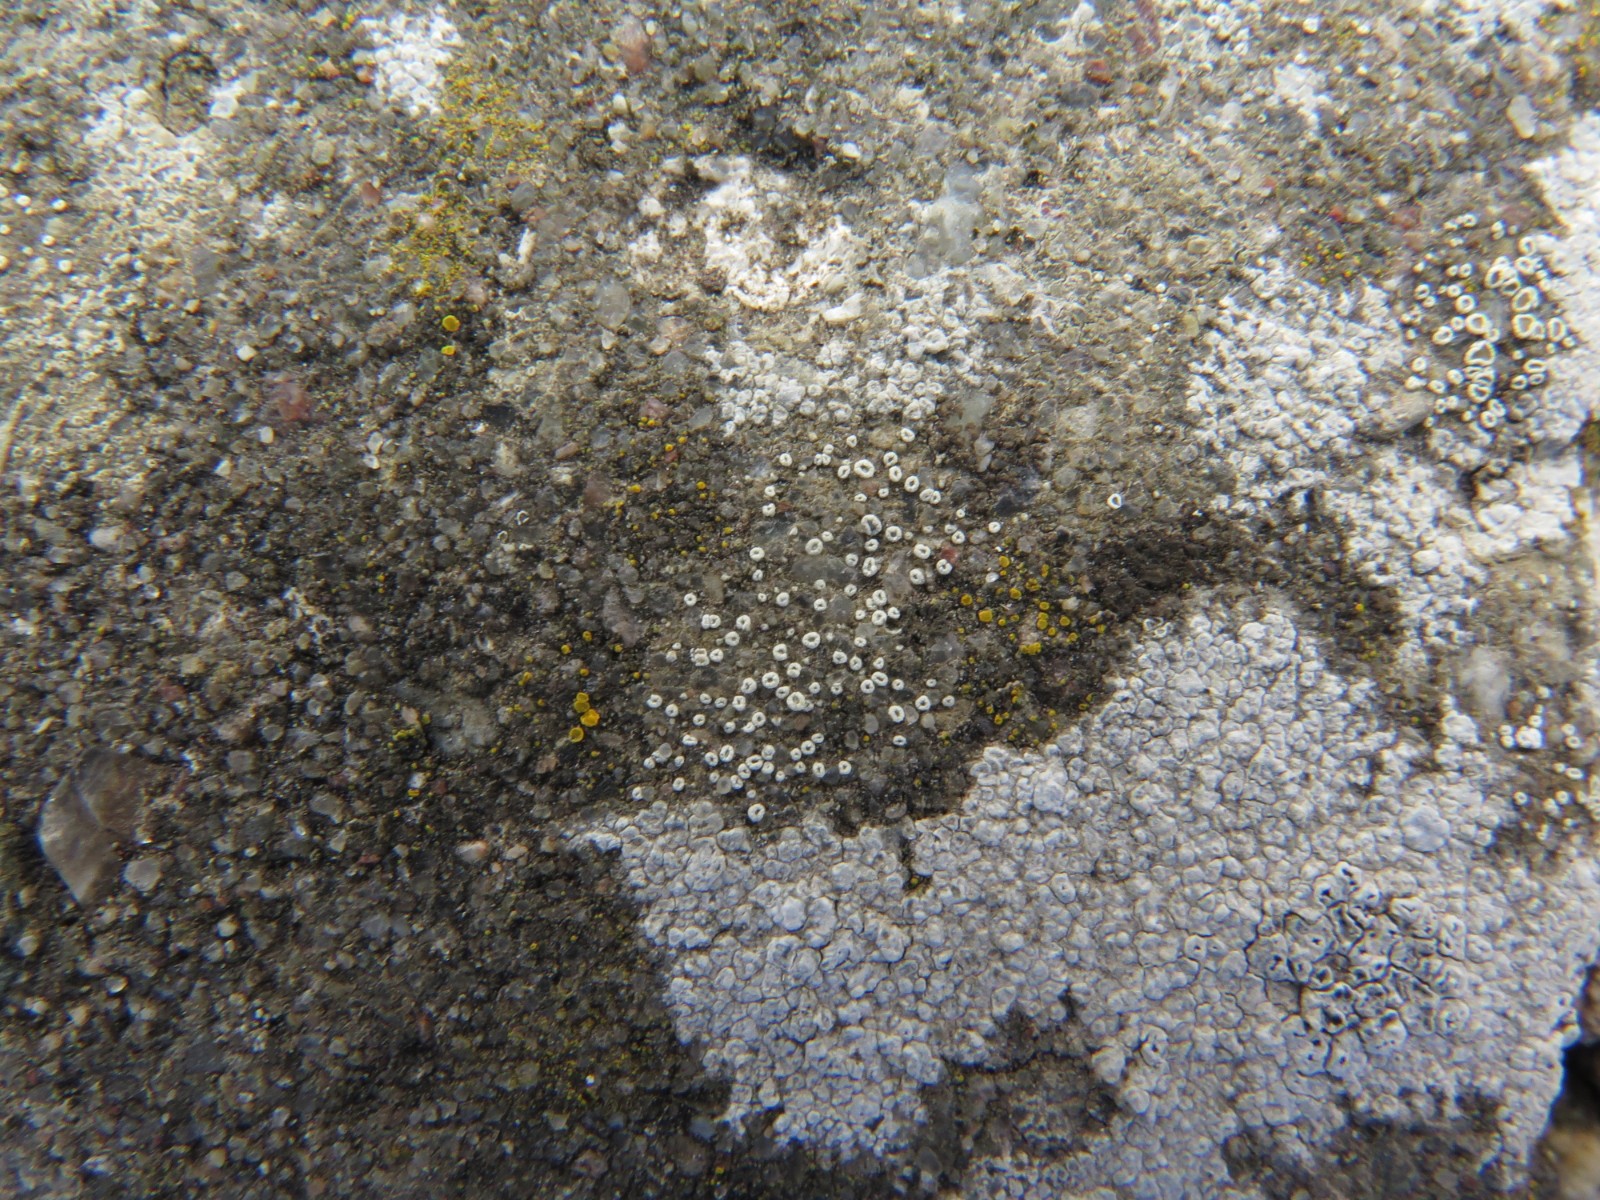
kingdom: Fungi
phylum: Ascomycota
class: Lecanoromycetes
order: Lecanorales
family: Lecanoraceae
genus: Polyozosia
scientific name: Polyozosia dispersa
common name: spredt kantskivelav
